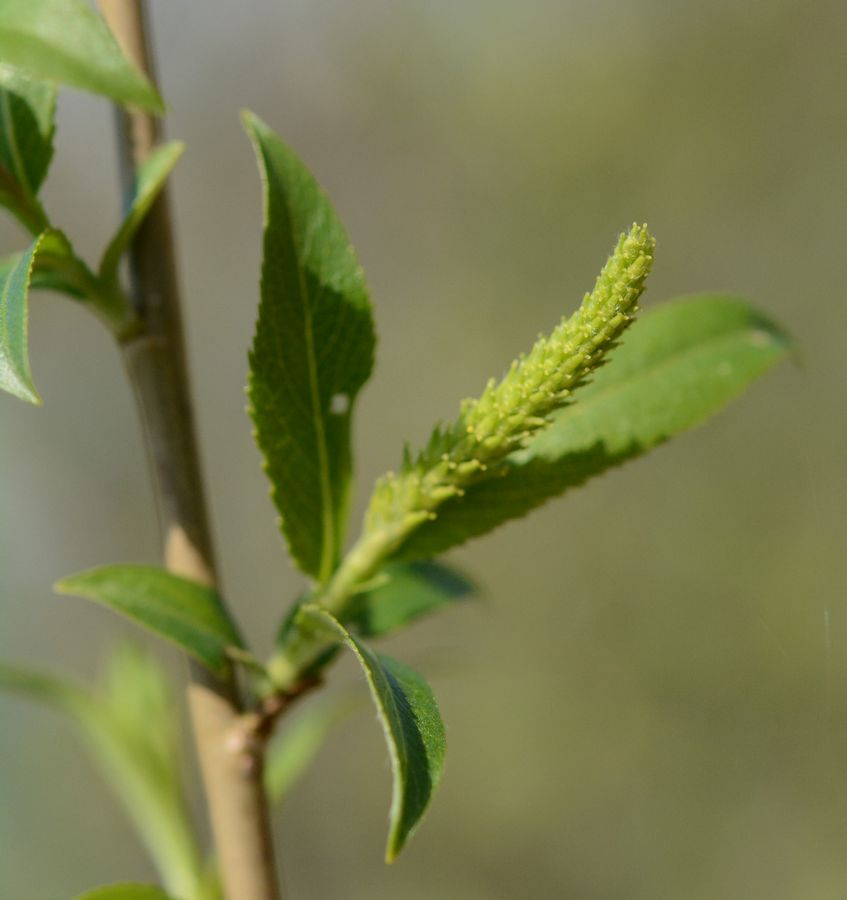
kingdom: Plantae
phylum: Tracheophyta
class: Magnoliopsida
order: Malpighiales
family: Salicaceae
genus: Salix
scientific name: Salix
